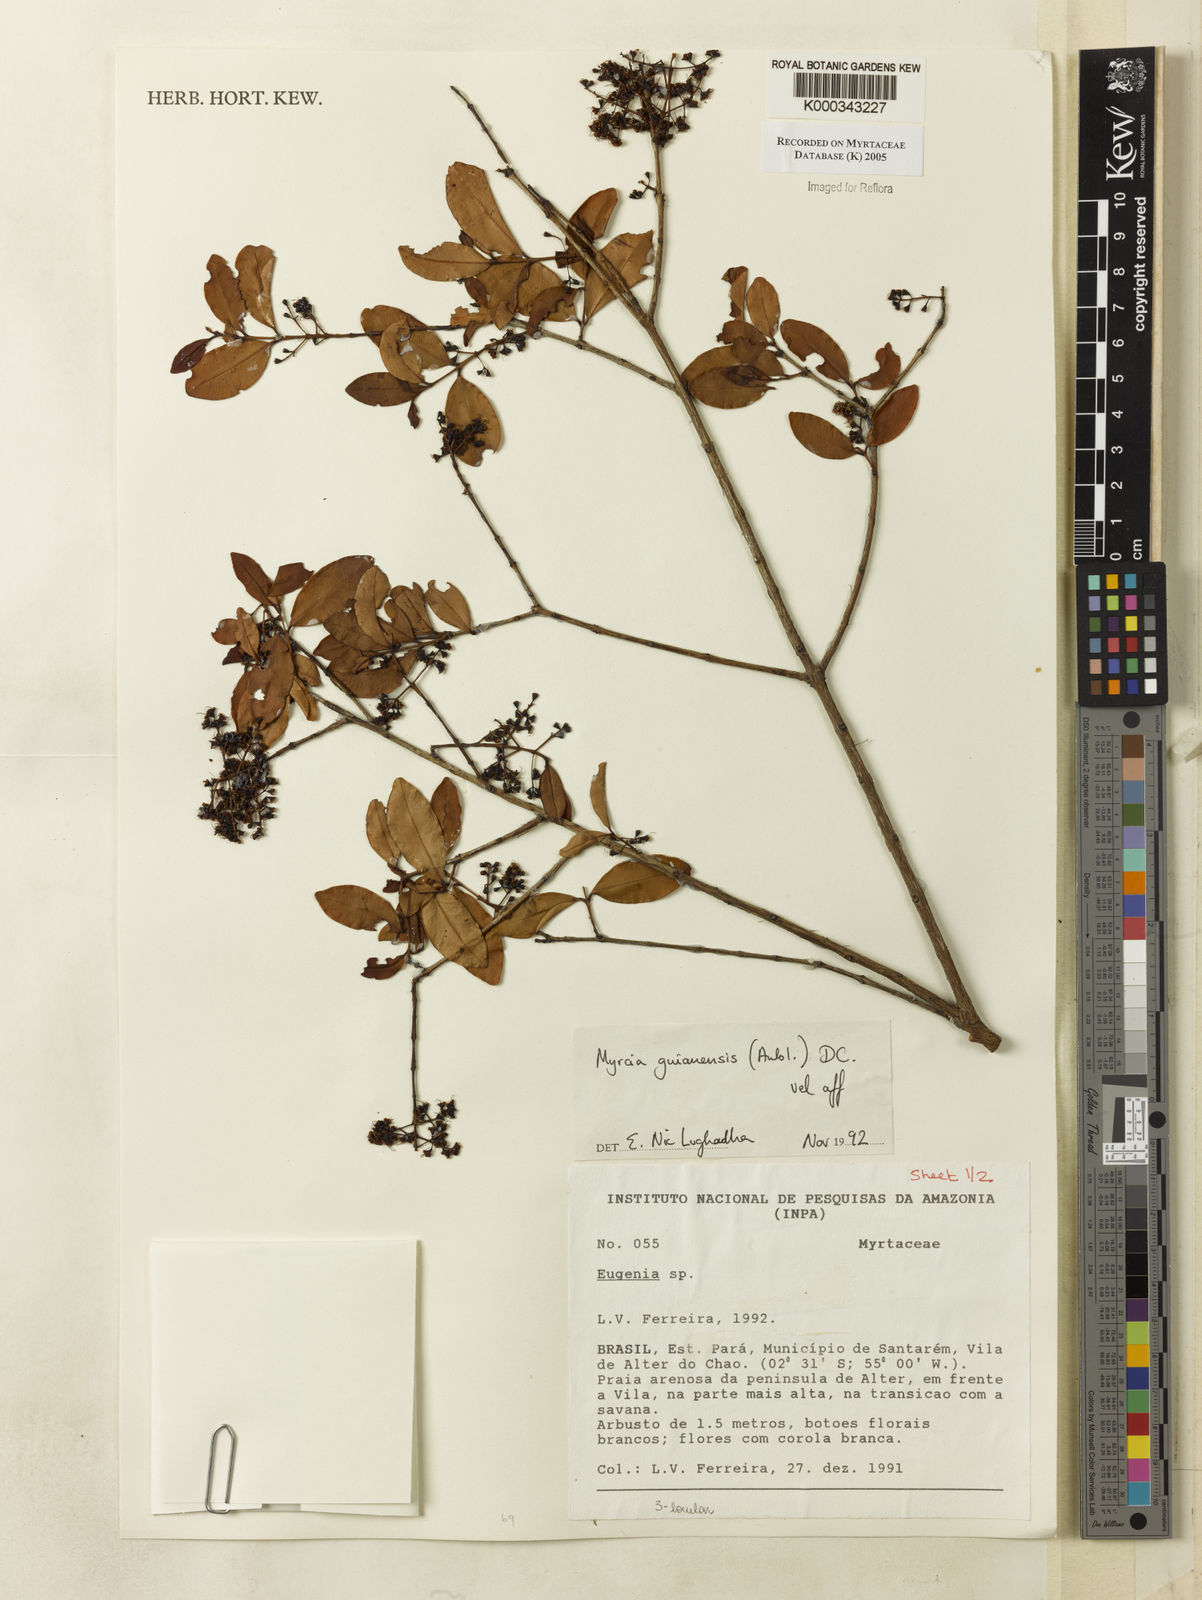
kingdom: Plantae
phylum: Tracheophyta
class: Magnoliopsida
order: Myrtales
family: Myrtaceae
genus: Myrcia
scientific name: Myrcia guianensis
